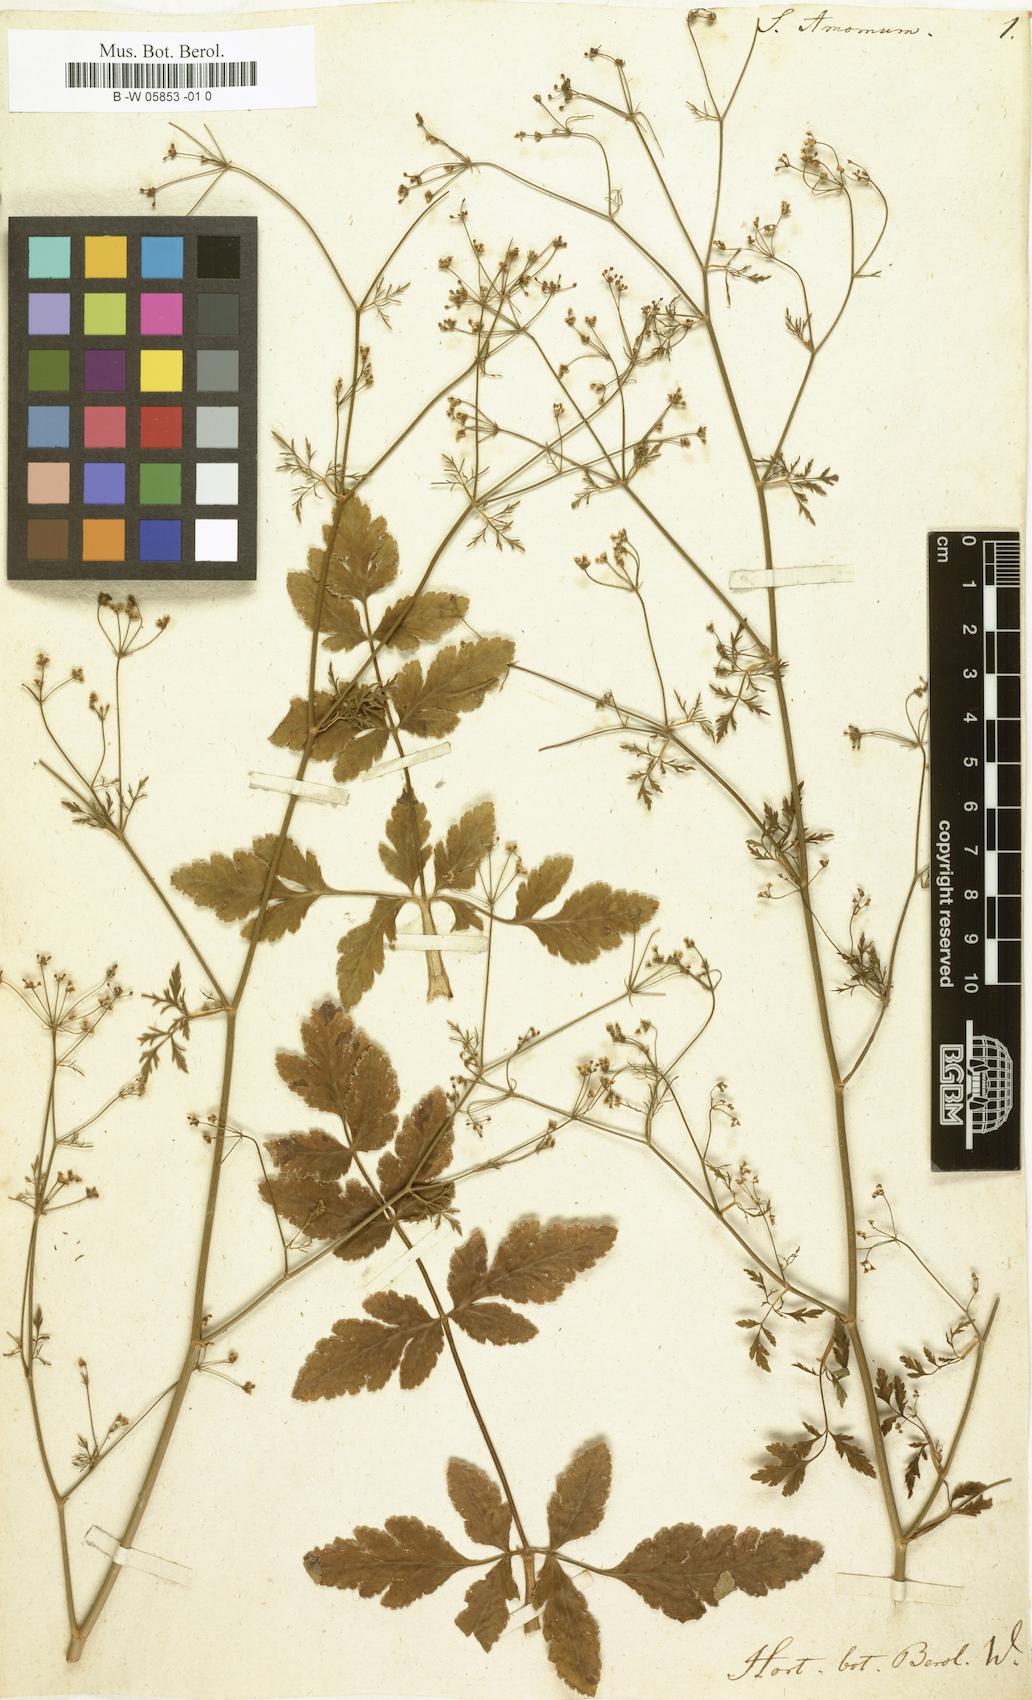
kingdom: Plantae
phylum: Tracheophyta
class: Magnoliopsida
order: Apiales
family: Apiaceae
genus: Sison
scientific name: Sison amomum
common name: Stone-parsley
